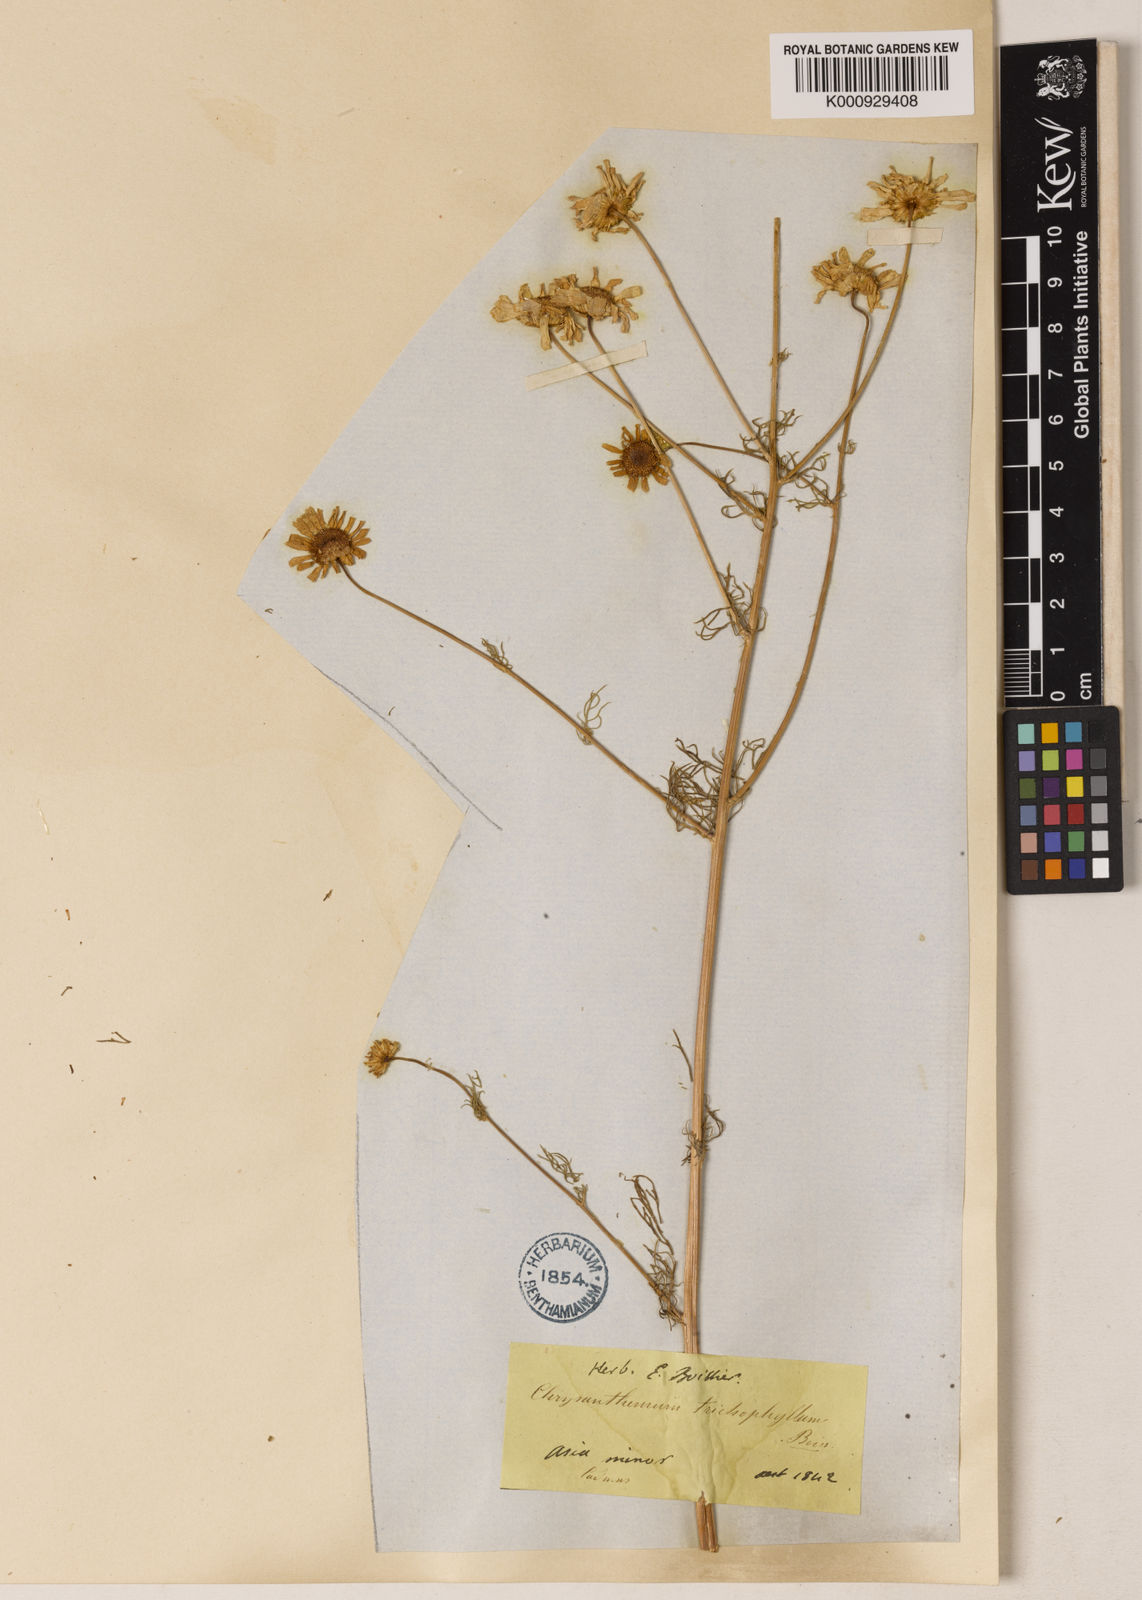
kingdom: Plantae
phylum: Tracheophyta
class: Magnoliopsida
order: Asterales
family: Asteraceae
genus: Tripleurospermum
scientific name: Tripleurospermum tenuifolium
